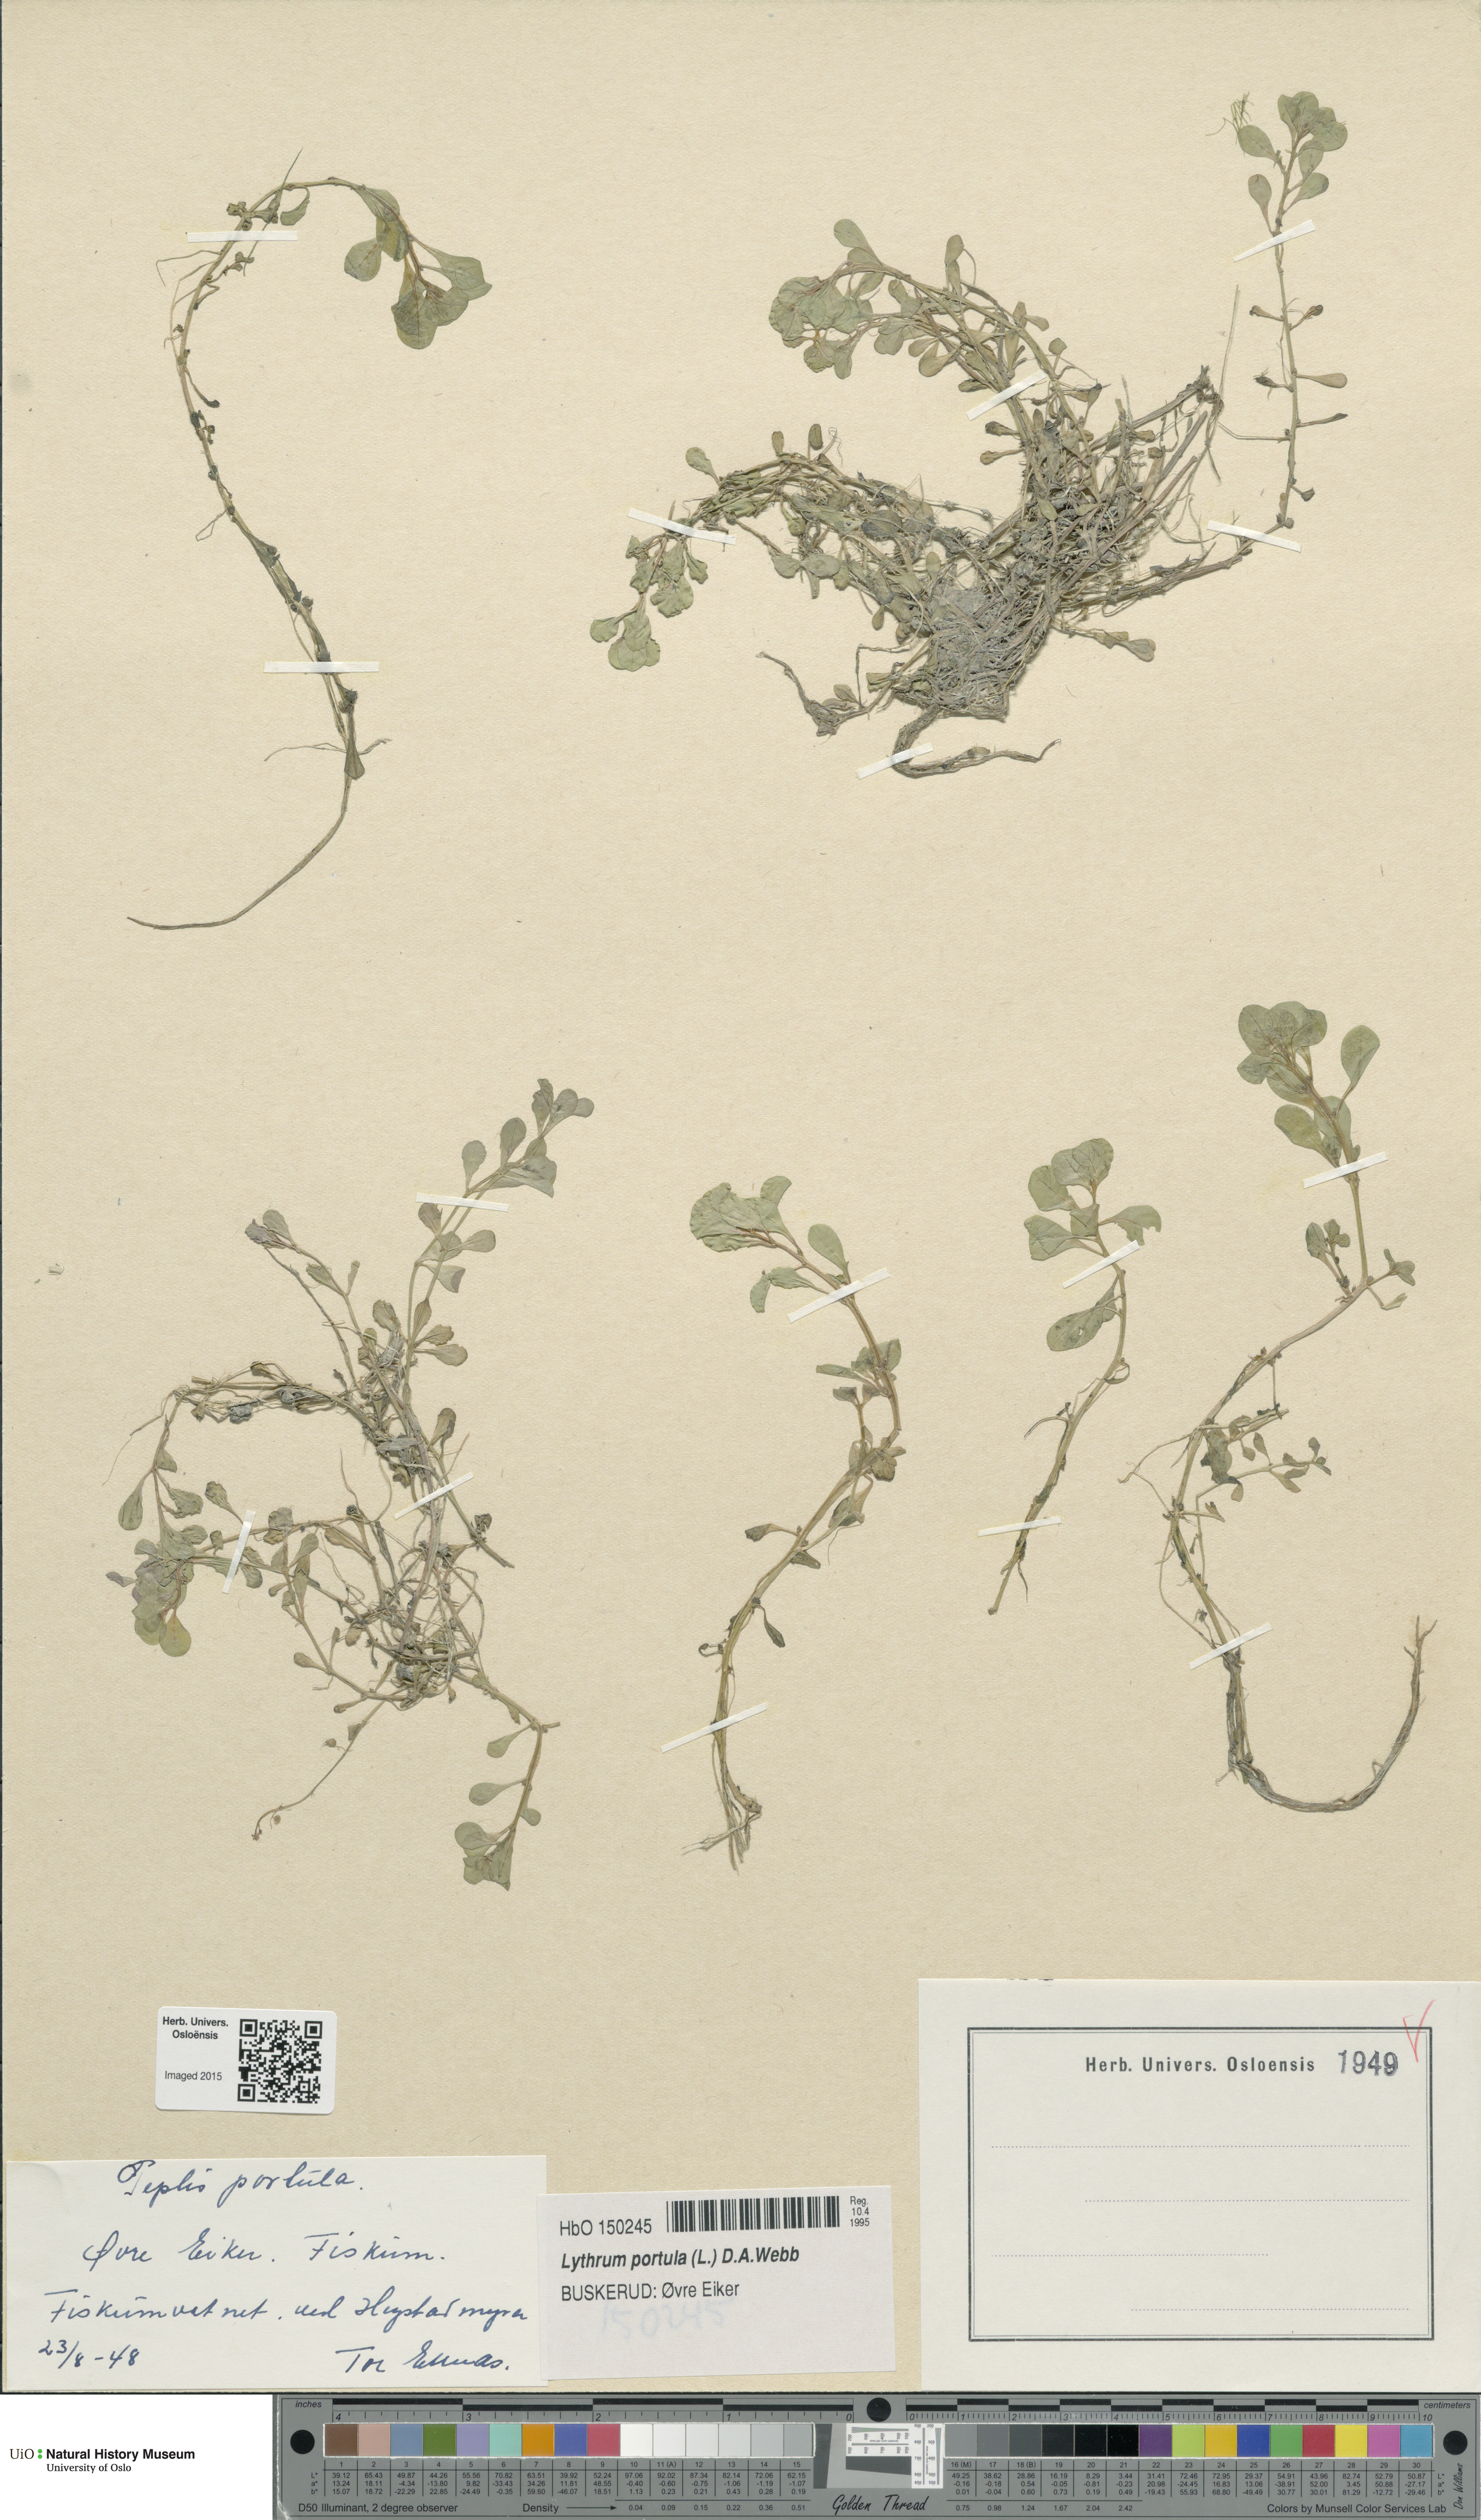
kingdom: Plantae
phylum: Tracheophyta
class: Magnoliopsida
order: Myrtales
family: Lythraceae
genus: Lythrum
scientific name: Lythrum portula
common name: Water purslane
